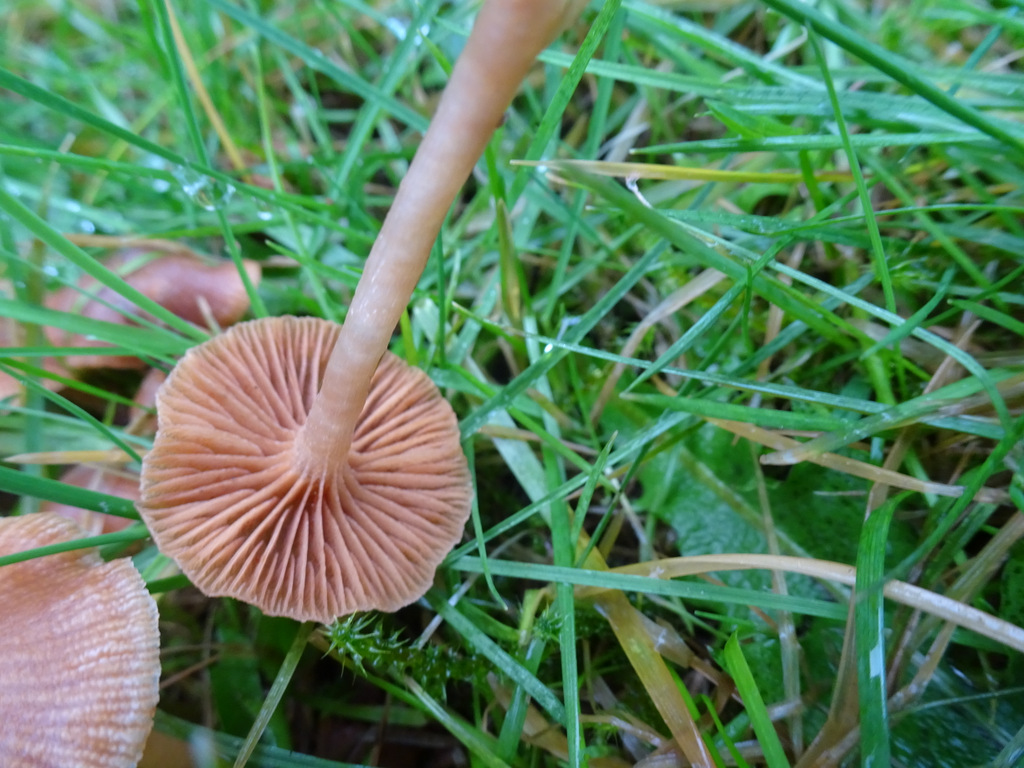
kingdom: Fungi
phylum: Basidiomycota
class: Agaricomycetes
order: Agaricales
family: Tubariaceae
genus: Tubaria
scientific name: Tubaria furfuracea
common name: kliddet fnughat
